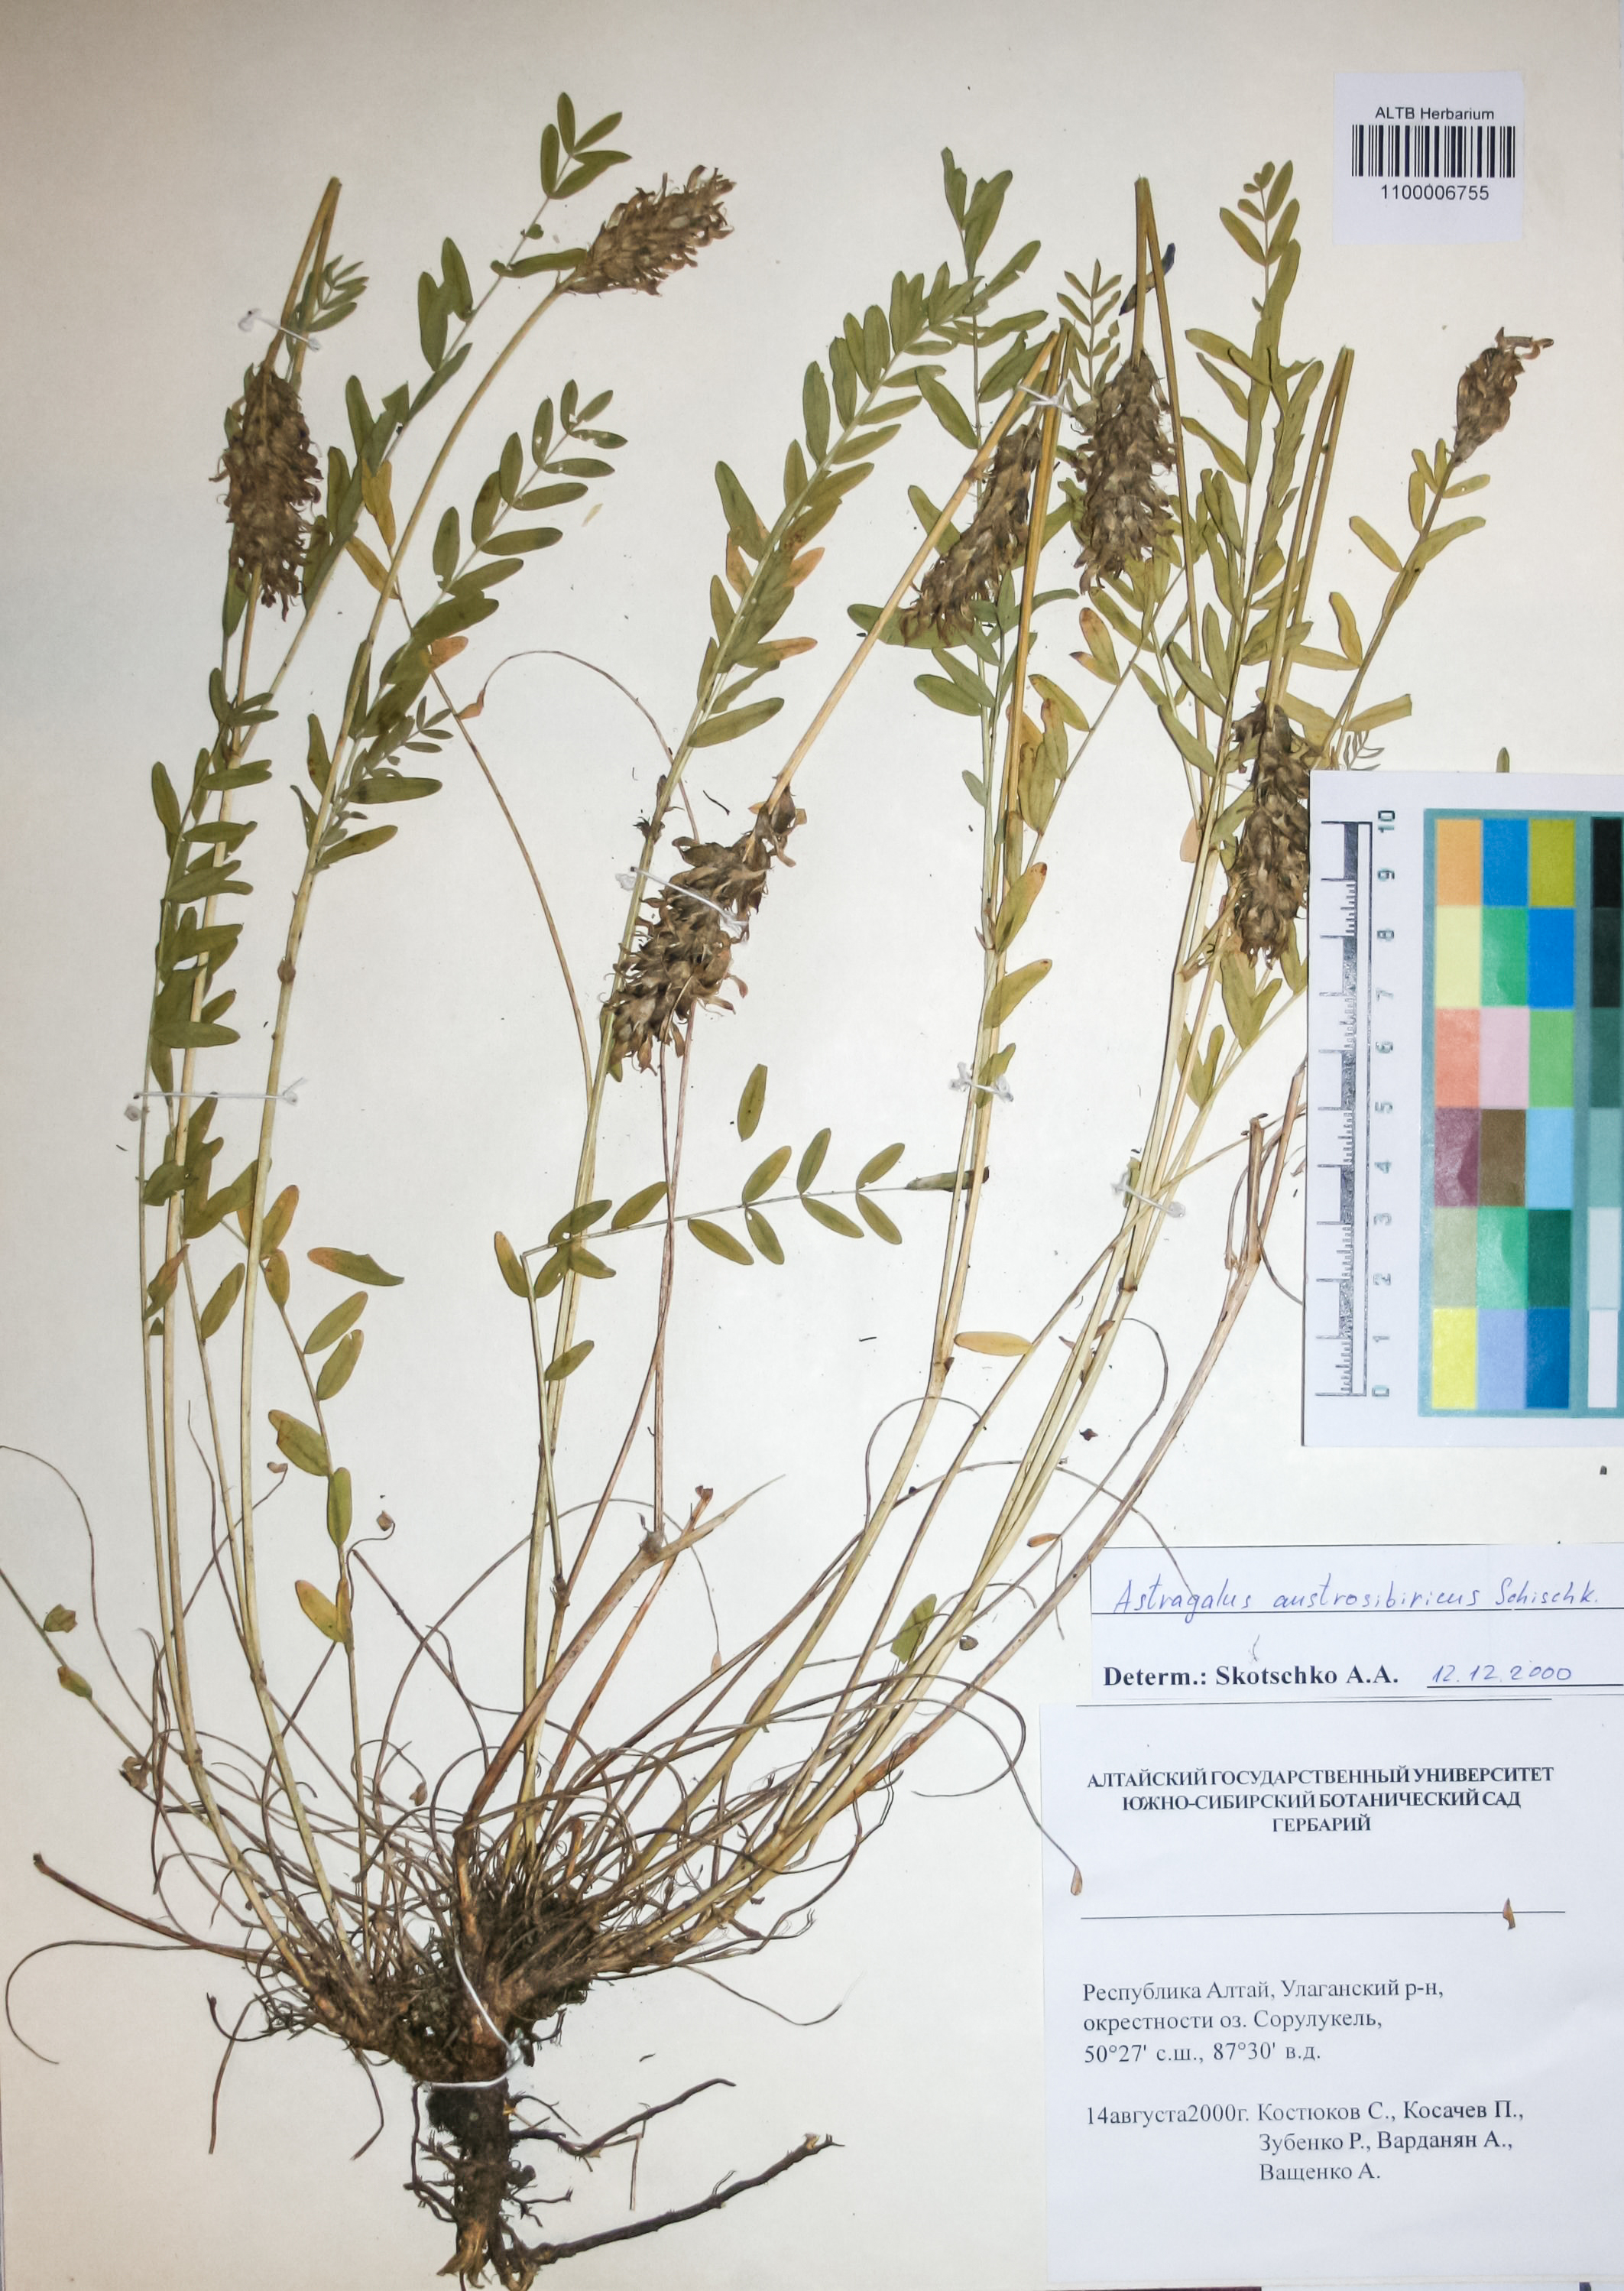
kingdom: Plantae
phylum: Tracheophyta
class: Magnoliopsida
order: Fabales
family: Fabaceae
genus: Astragalus
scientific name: Astragalus laxmannii
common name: Laxmann's milk-vetch
